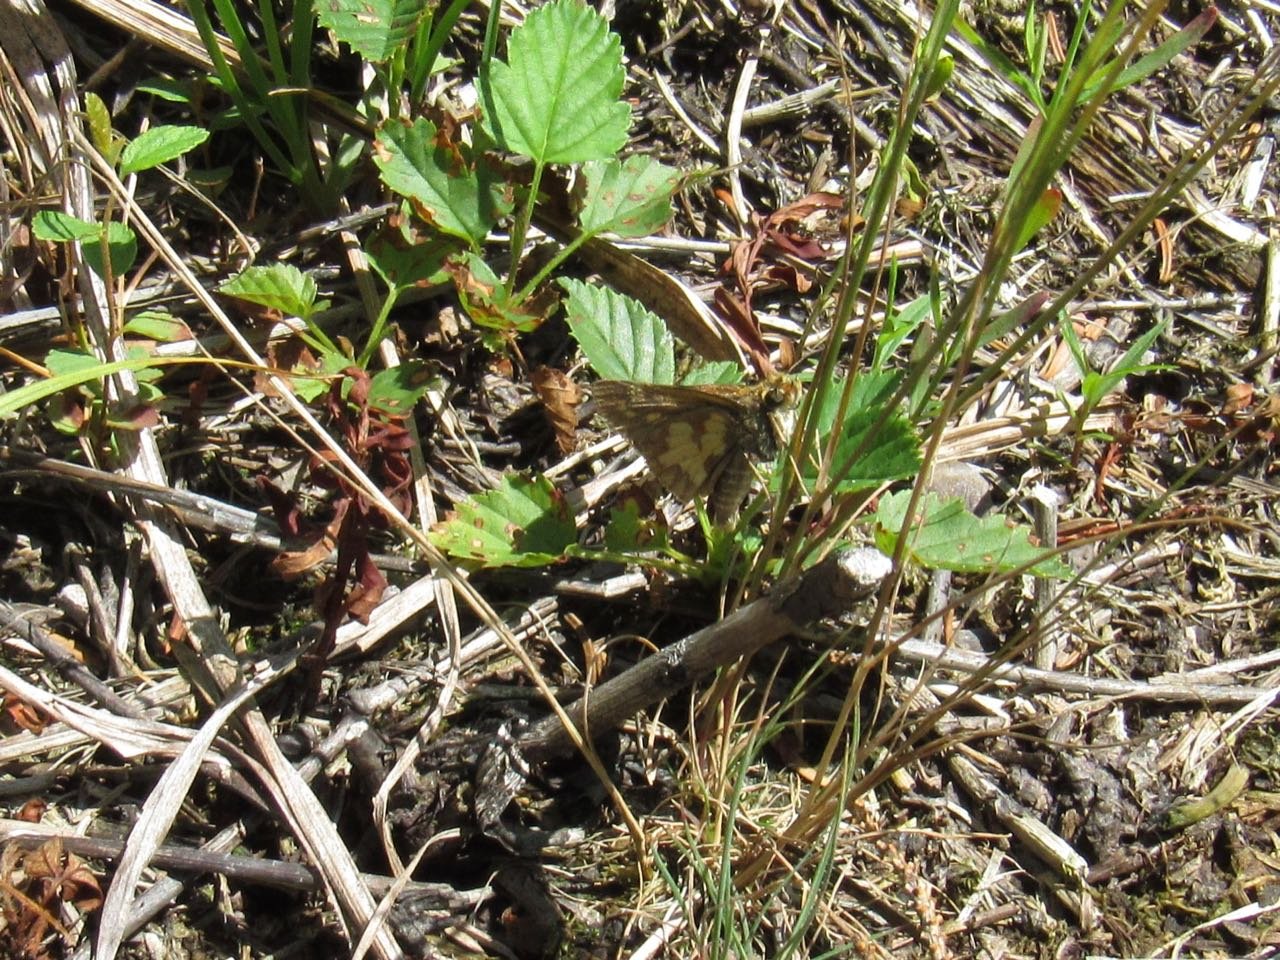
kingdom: Animalia
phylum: Arthropoda
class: Insecta
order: Lepidoptera
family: Hesperiidae
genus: Polites
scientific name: Polites coras
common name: Peck's Skipper
